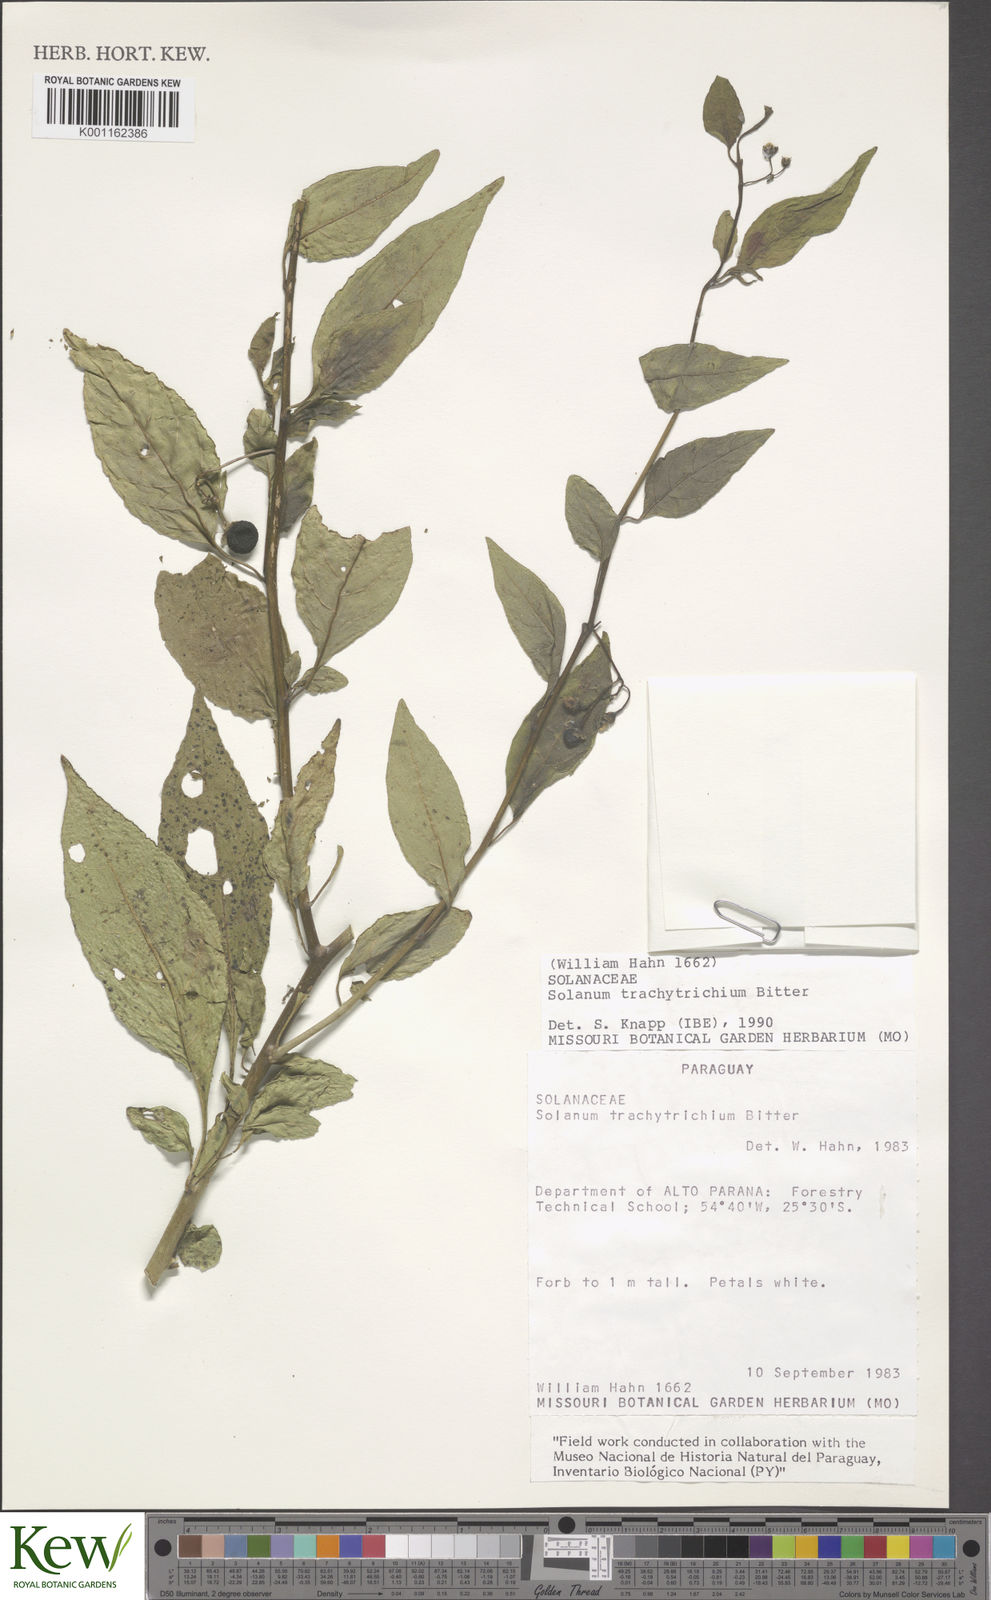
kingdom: Plantae
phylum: Tracheophyta
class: Magnoliopsida
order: Solanales
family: Solanaceae
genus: Solanum
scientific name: Solanum trachytrichium
